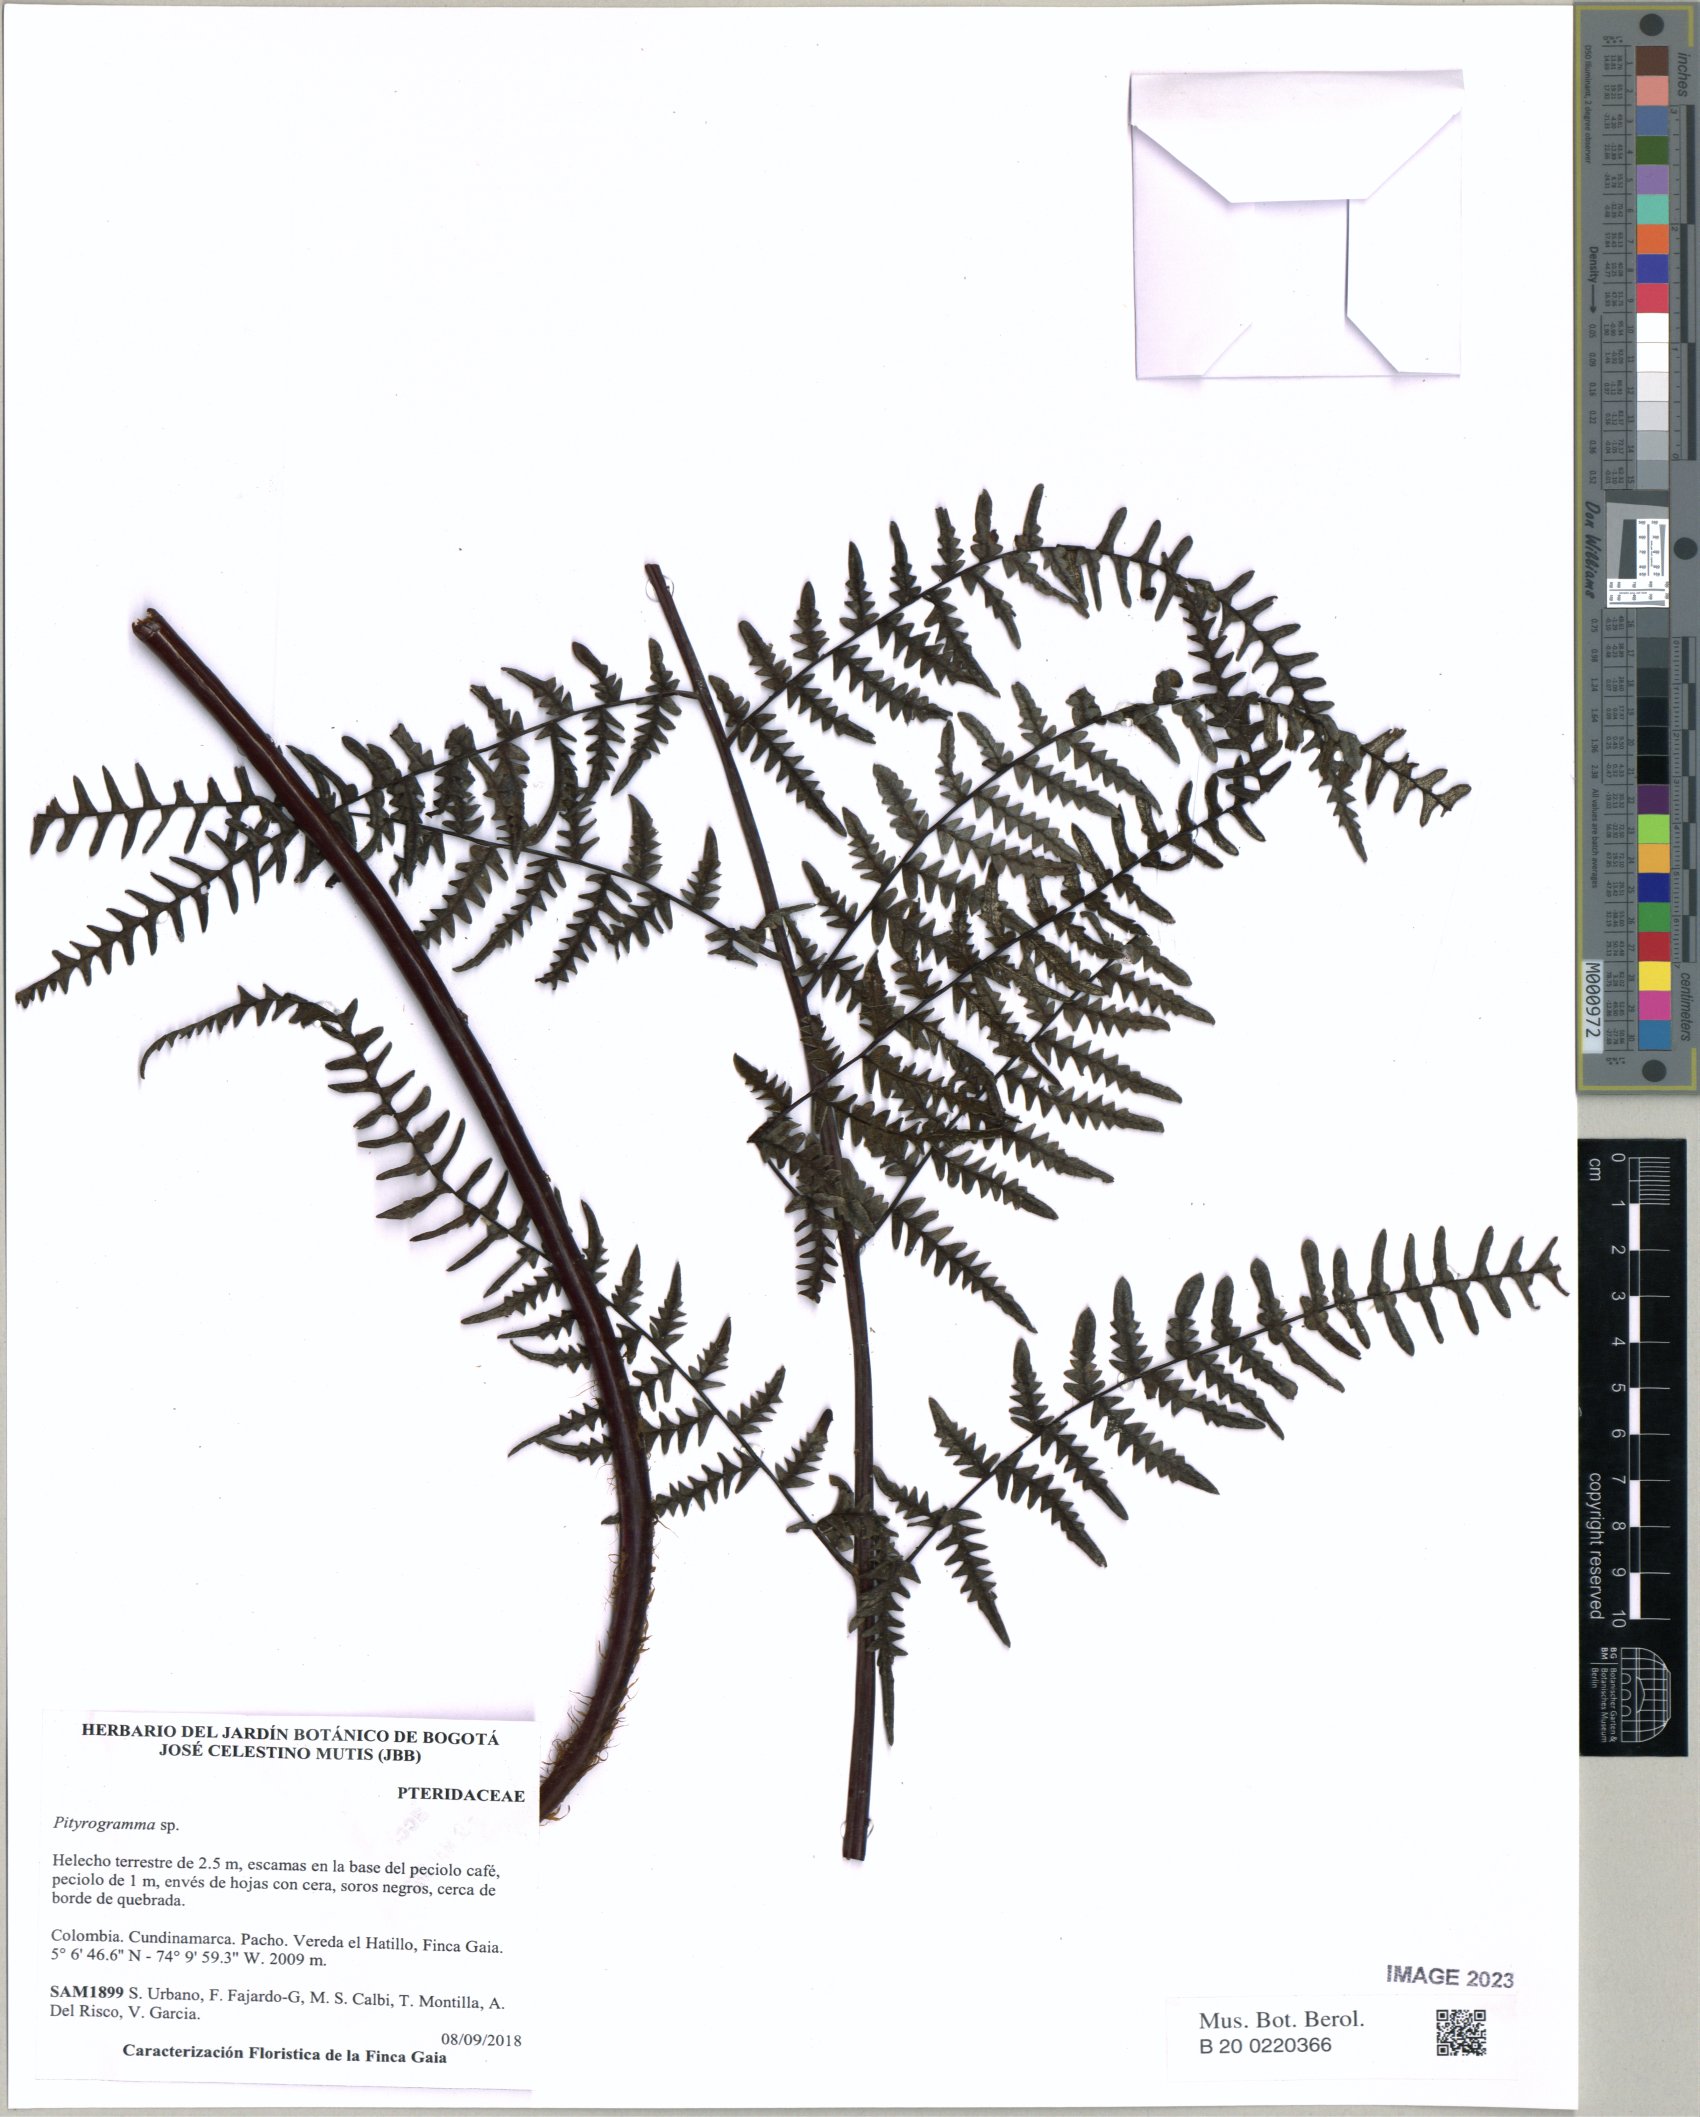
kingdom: Plantae
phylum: Tracheophyta
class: Polypodiopsida
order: Polypodiales
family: Pteridaceae
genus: Pityrogramma
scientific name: Pityrogramma
